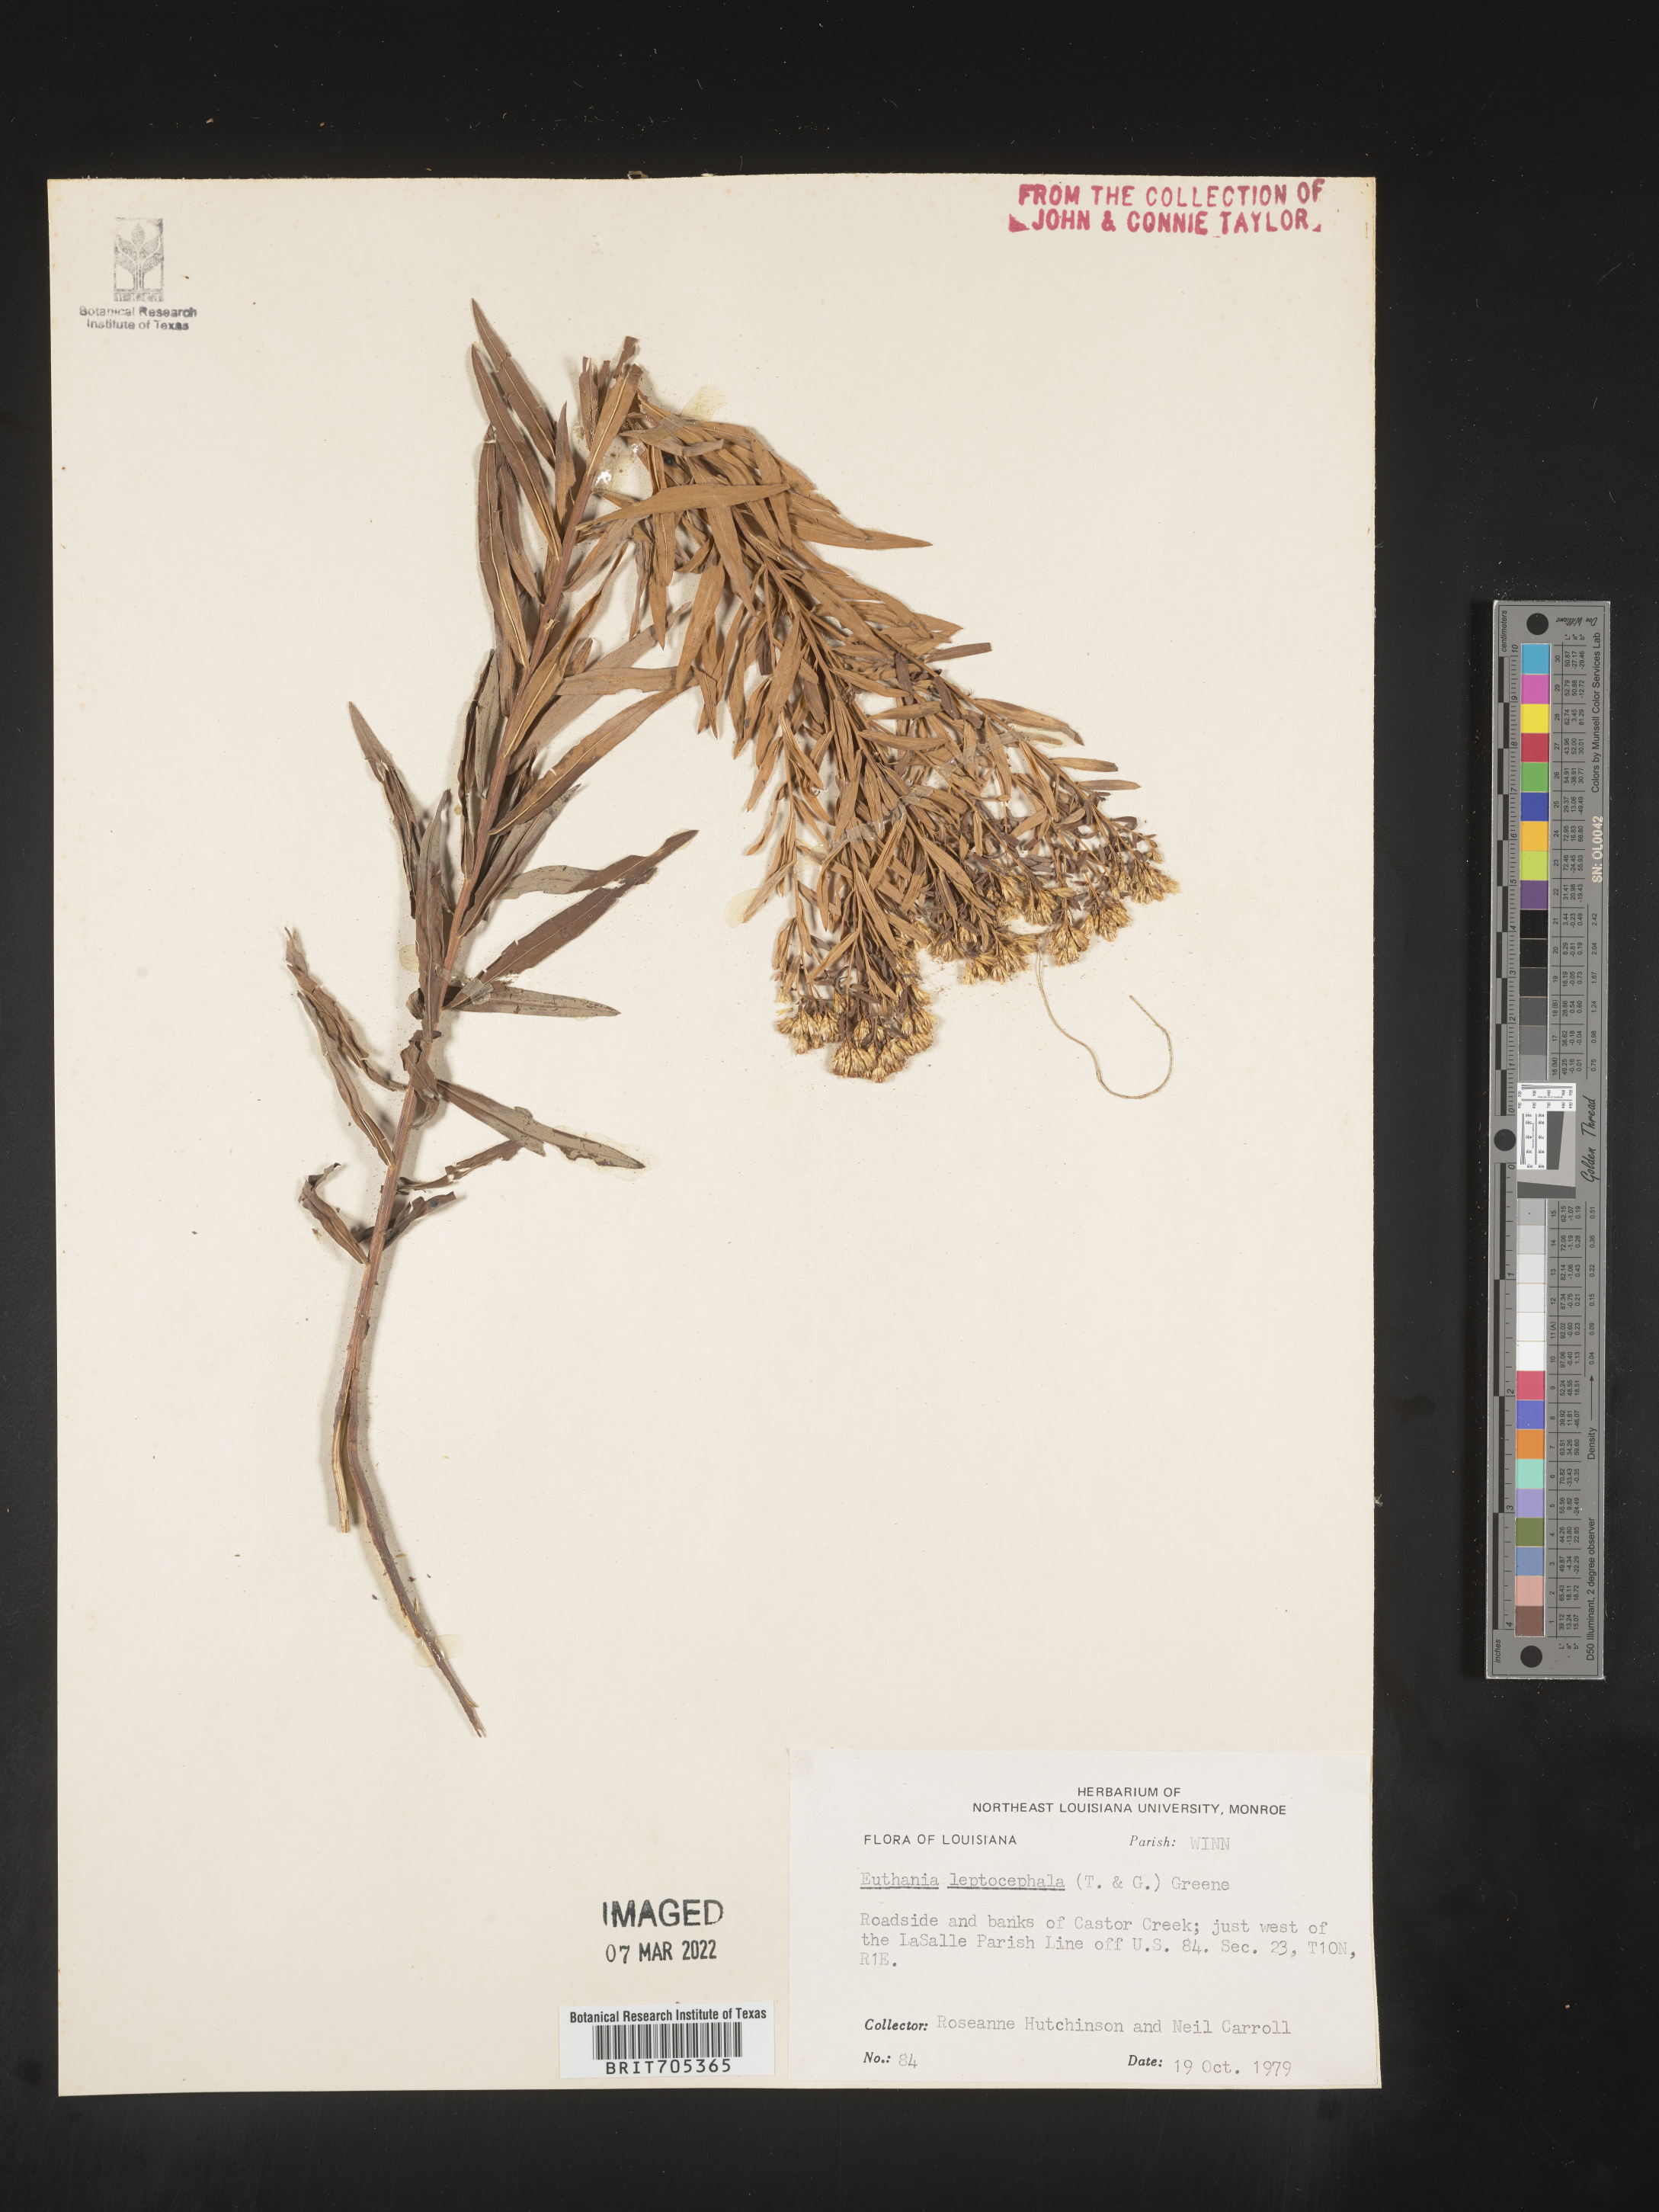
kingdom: Plantae
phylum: Tracheophyta
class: Magnoliopsida
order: Asterales
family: Asteraceae
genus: Euthamia
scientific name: Euthamia leptocephala
